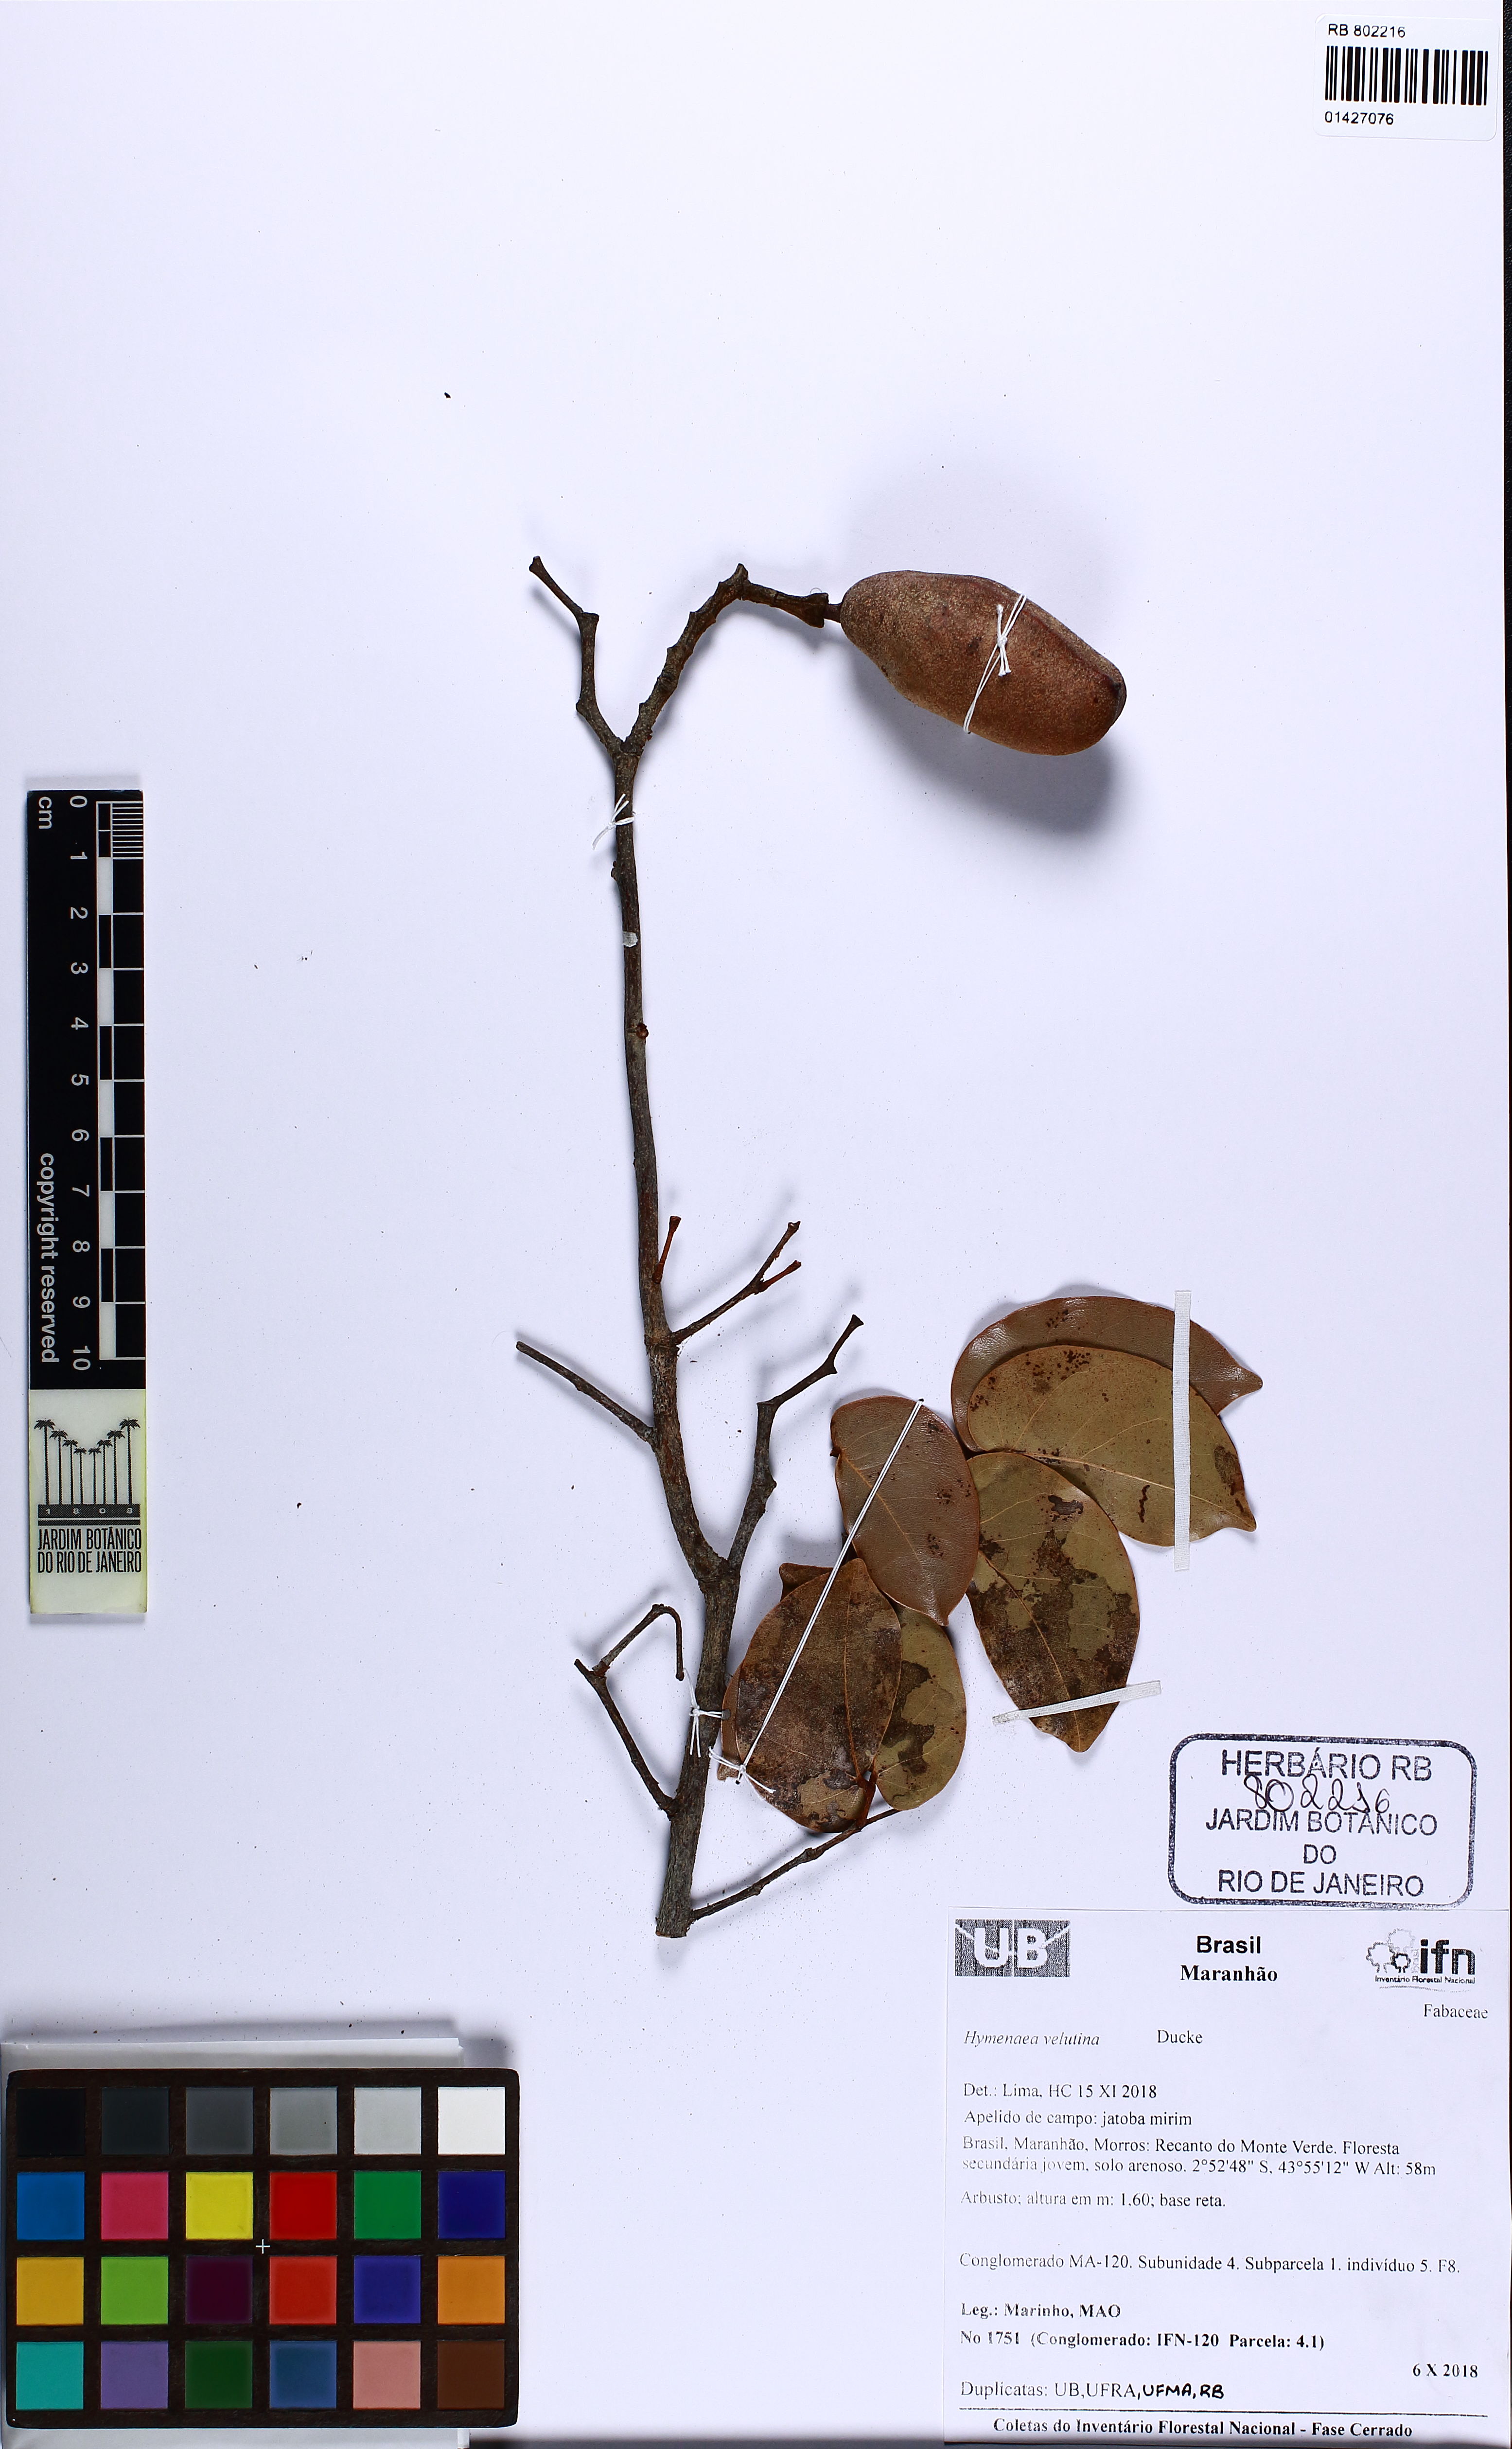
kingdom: Plantae
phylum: Tracheophyta
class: Magnoliopsida
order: Fabales
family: Fabaceae
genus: Hymenaea
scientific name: Hymenaea velutina
